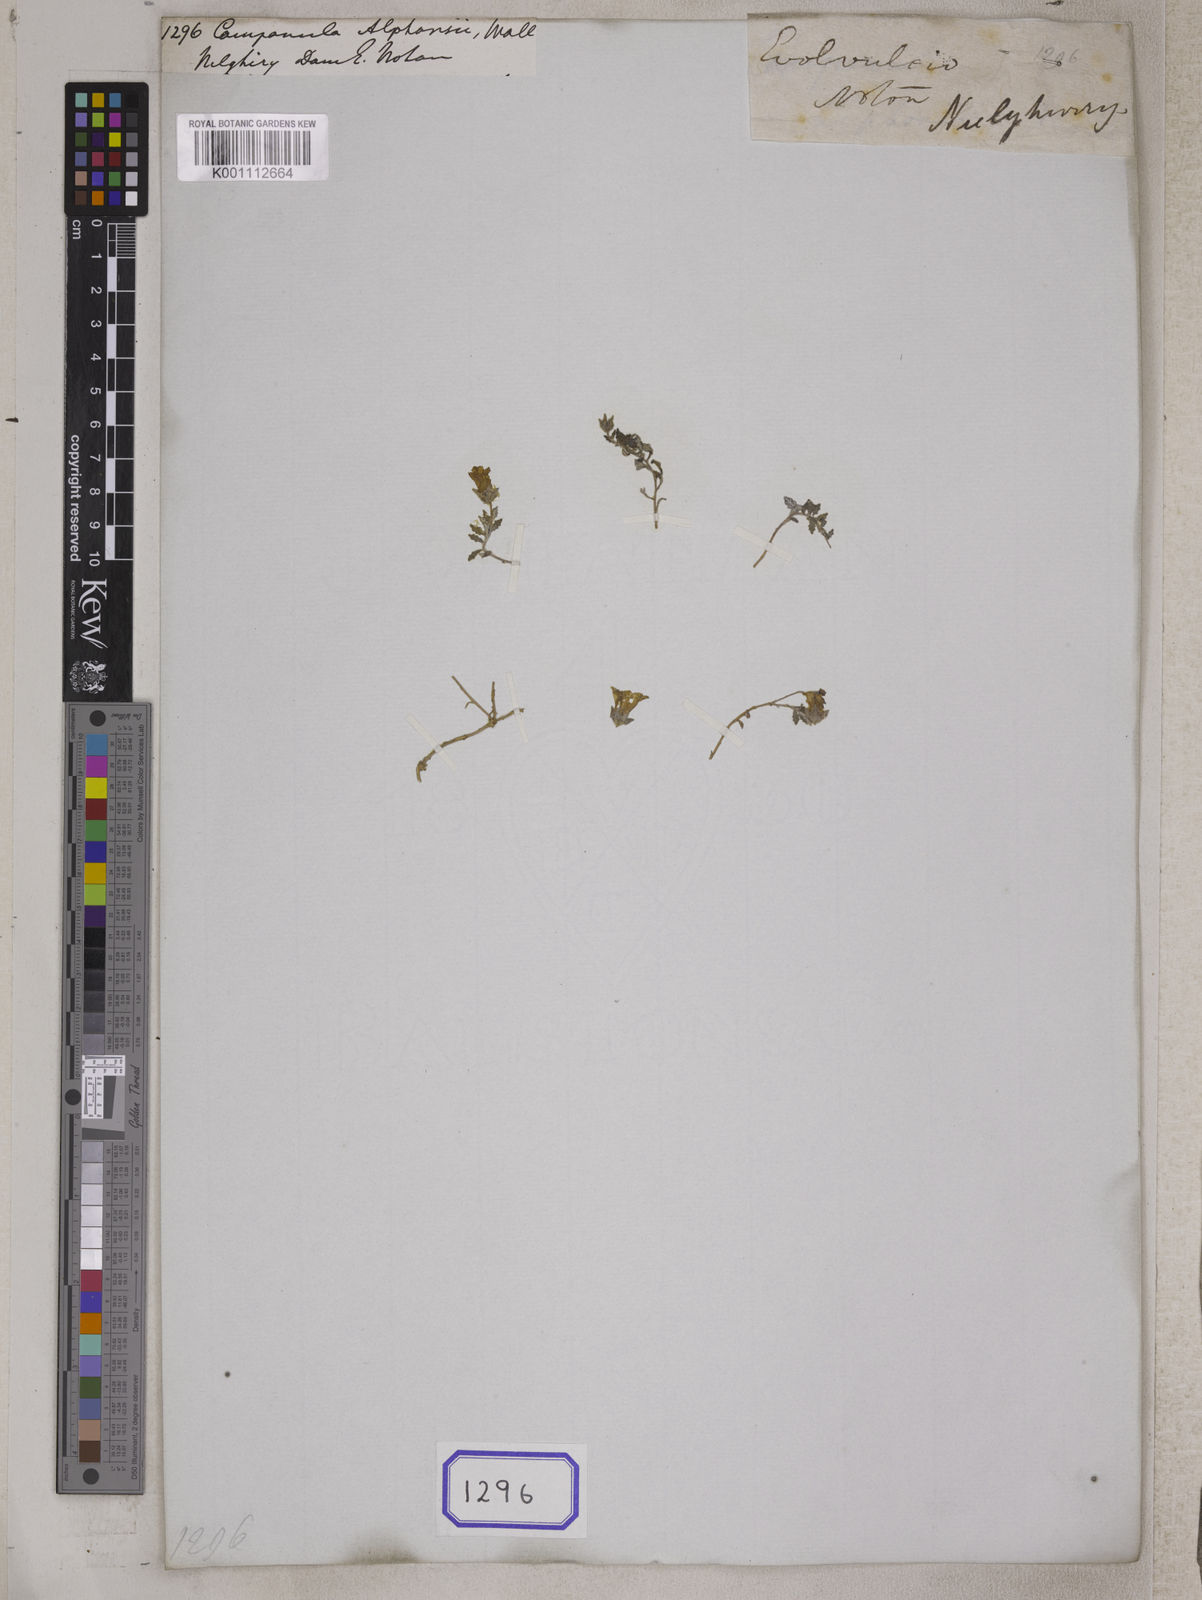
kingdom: Plantae
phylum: Tracheophyta
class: Magnoliopsida
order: Asterales
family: Campanulaceae
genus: Campanula
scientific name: Campanula
